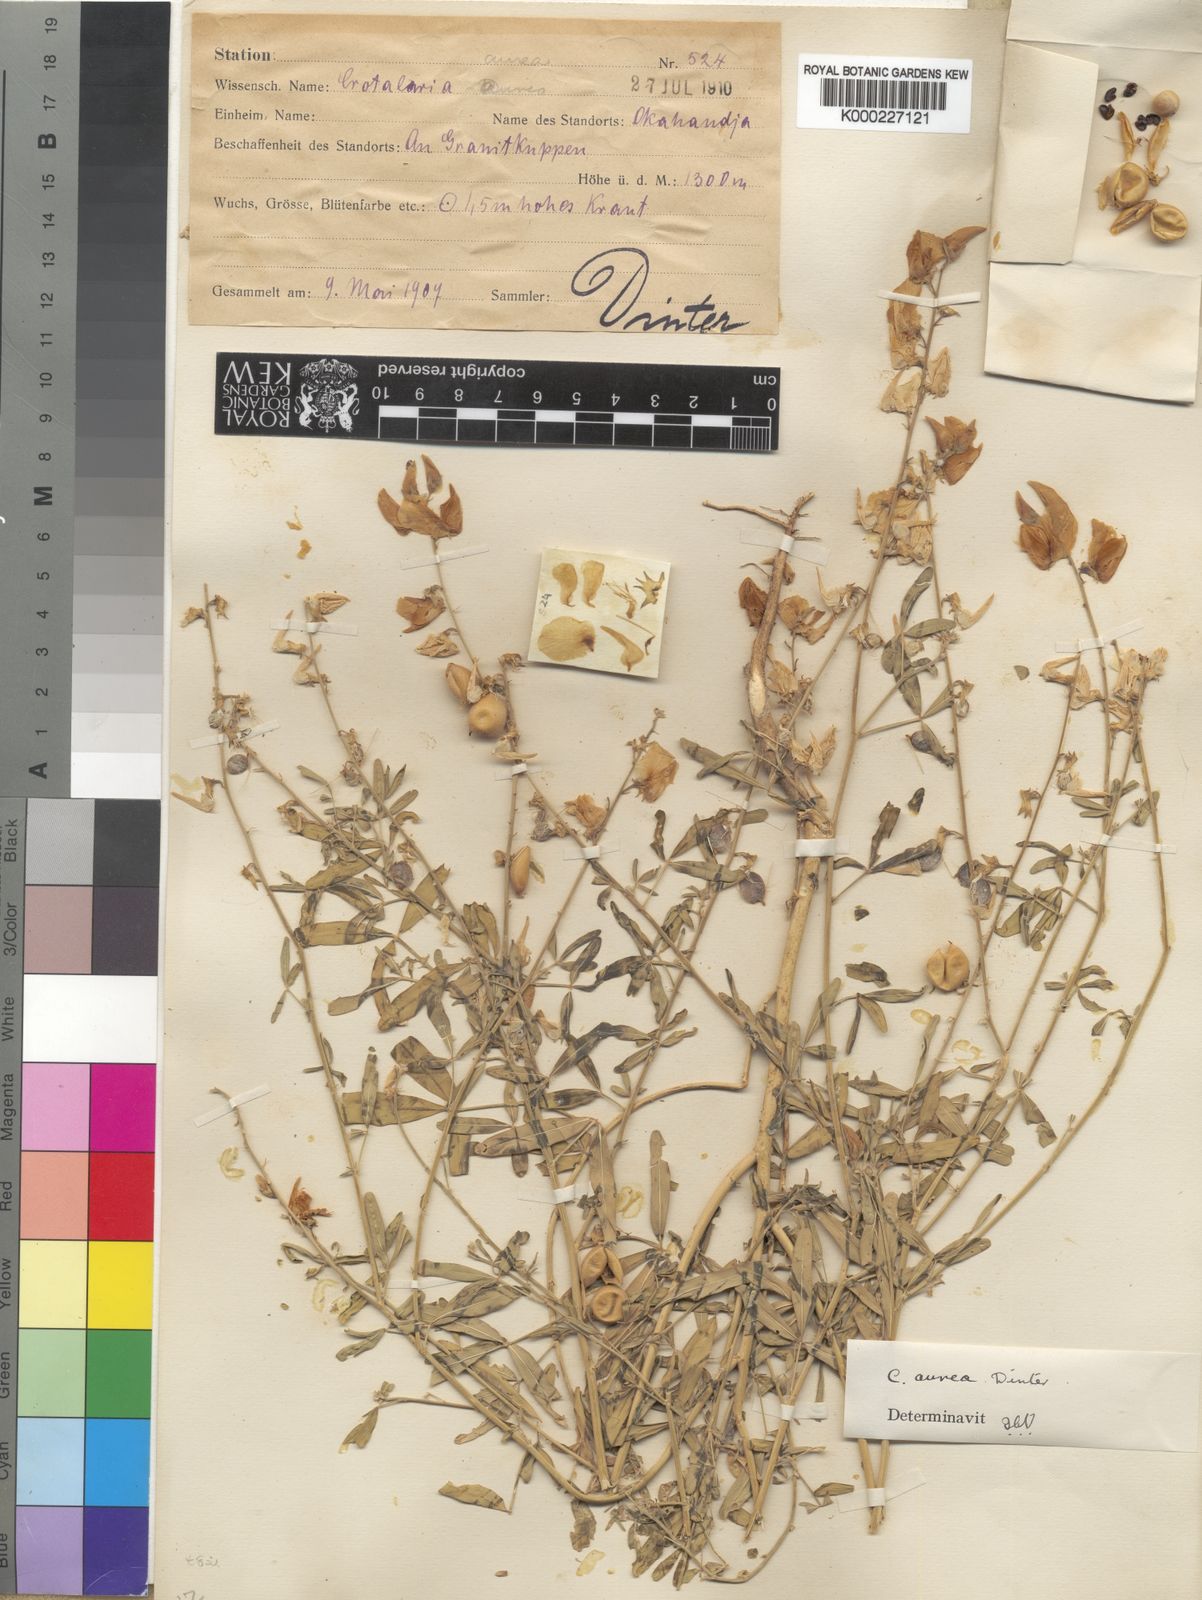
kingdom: Plantae
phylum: Tracheophyta
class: Magnoliopsida
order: Fabales
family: Fabaceae
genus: Crotalaria
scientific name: Crotalaria aurea
